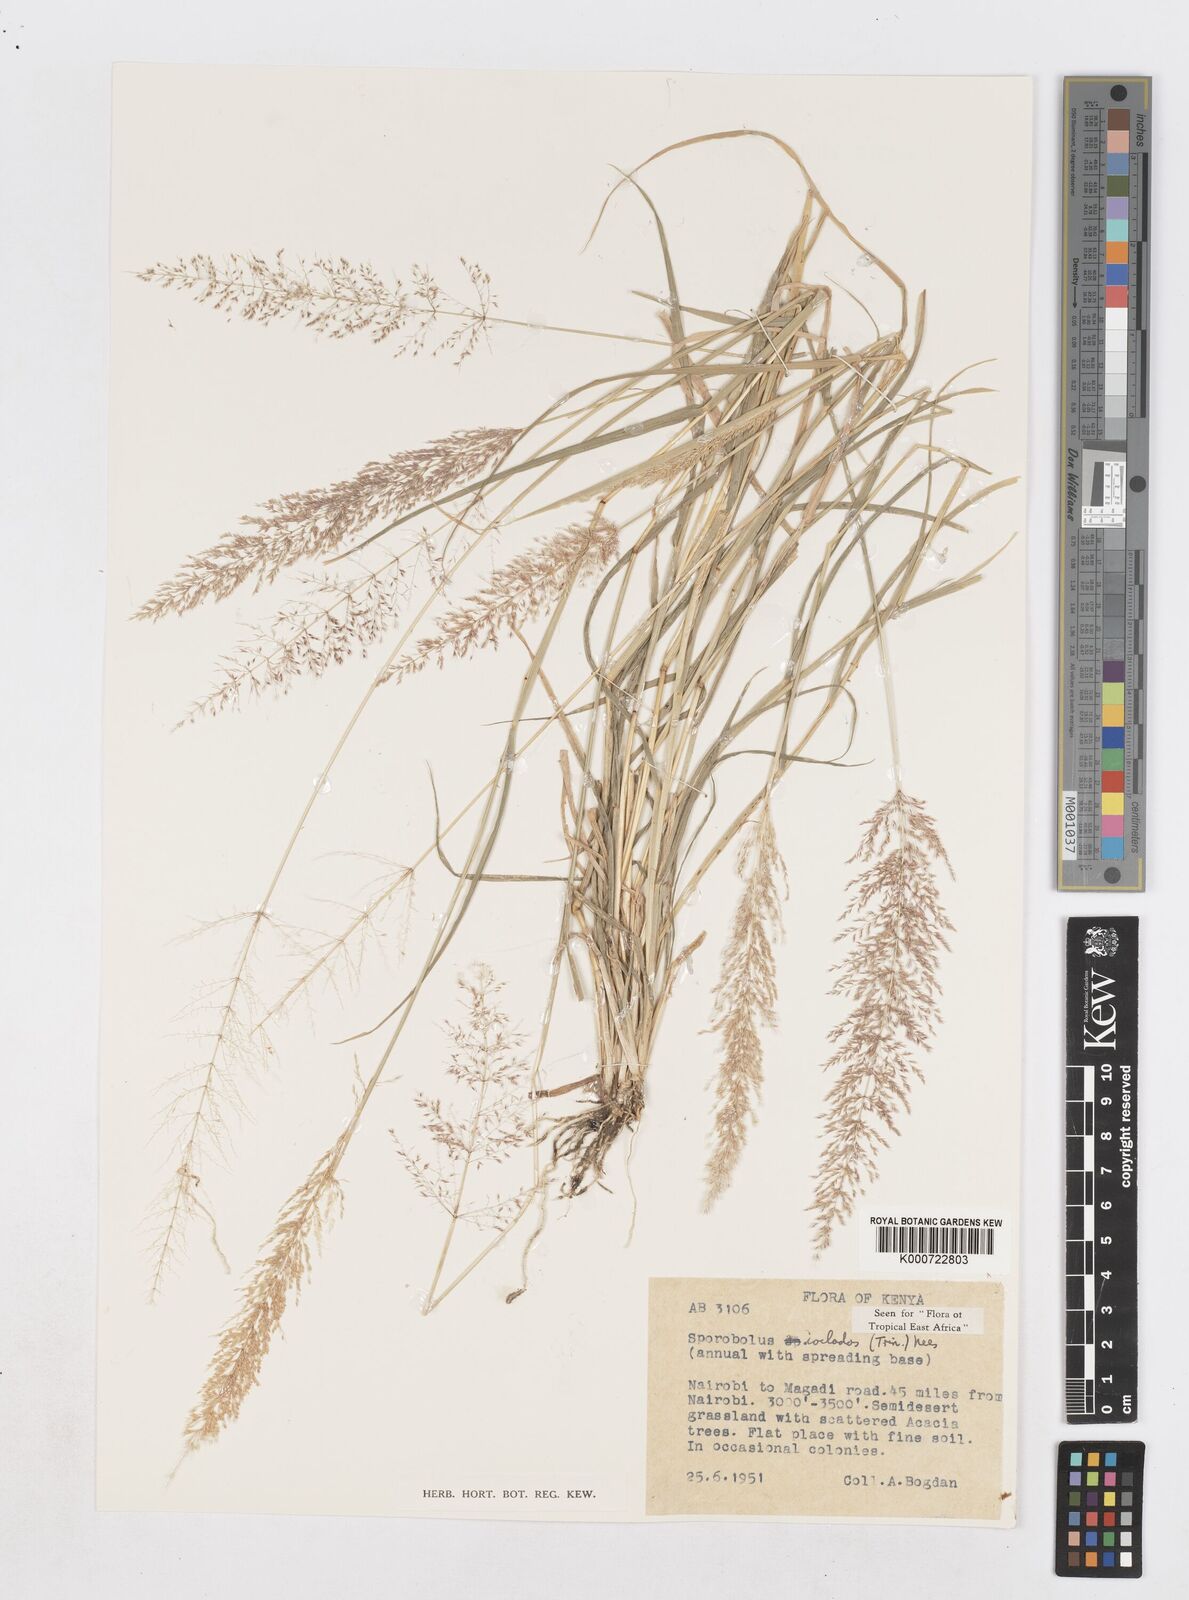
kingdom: Plantae
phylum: Tracheophyta
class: Liliopsida
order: Poales
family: Poaceae
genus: Sporobolus
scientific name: Sporobolus ioclados
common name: Pan dropseed
